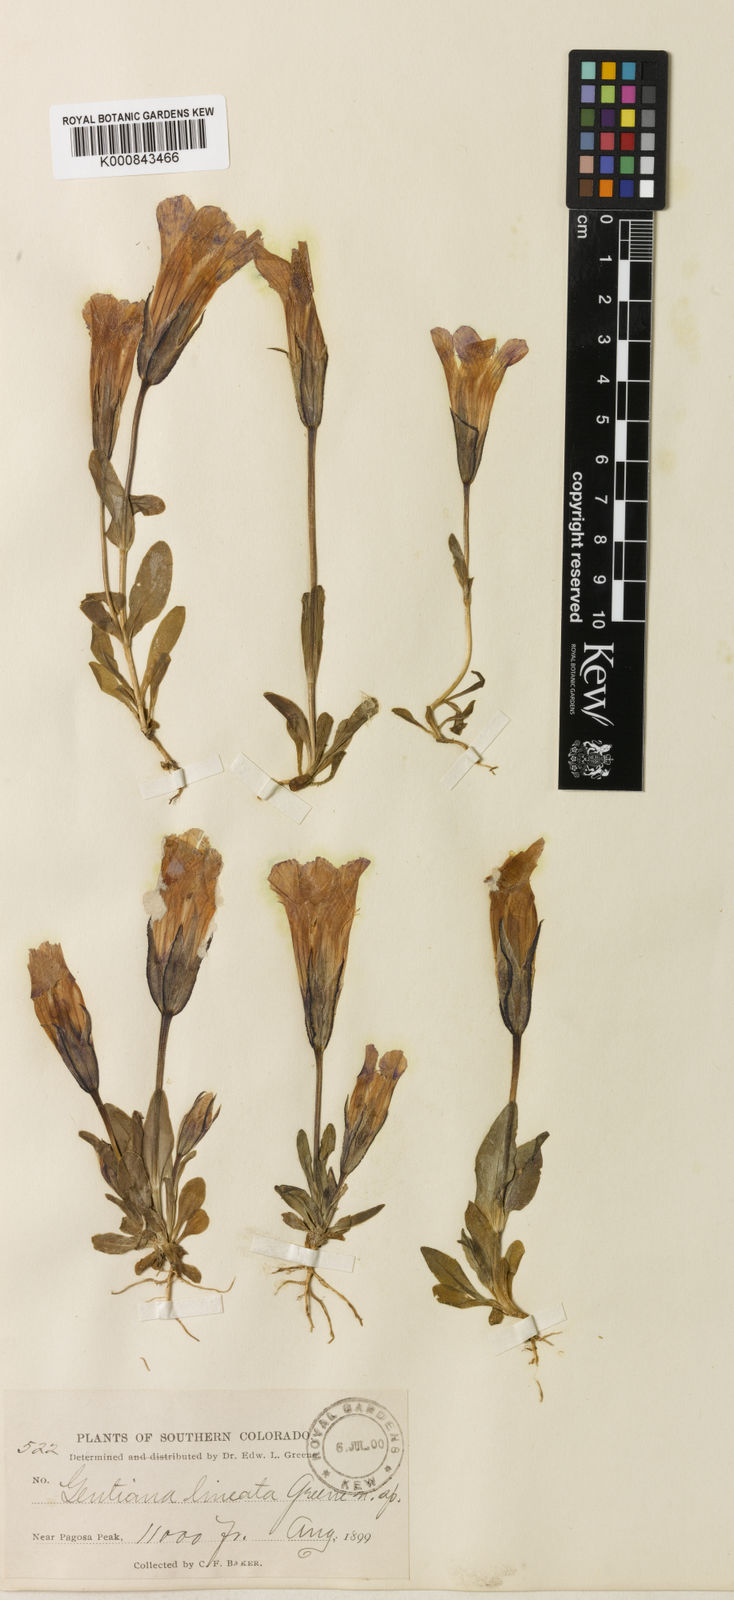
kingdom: Plantae
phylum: Tracheophyta
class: Magnoliopsida
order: Gentianales
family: Gentianaceae
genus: Gentianopsis
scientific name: Gentianopsis
